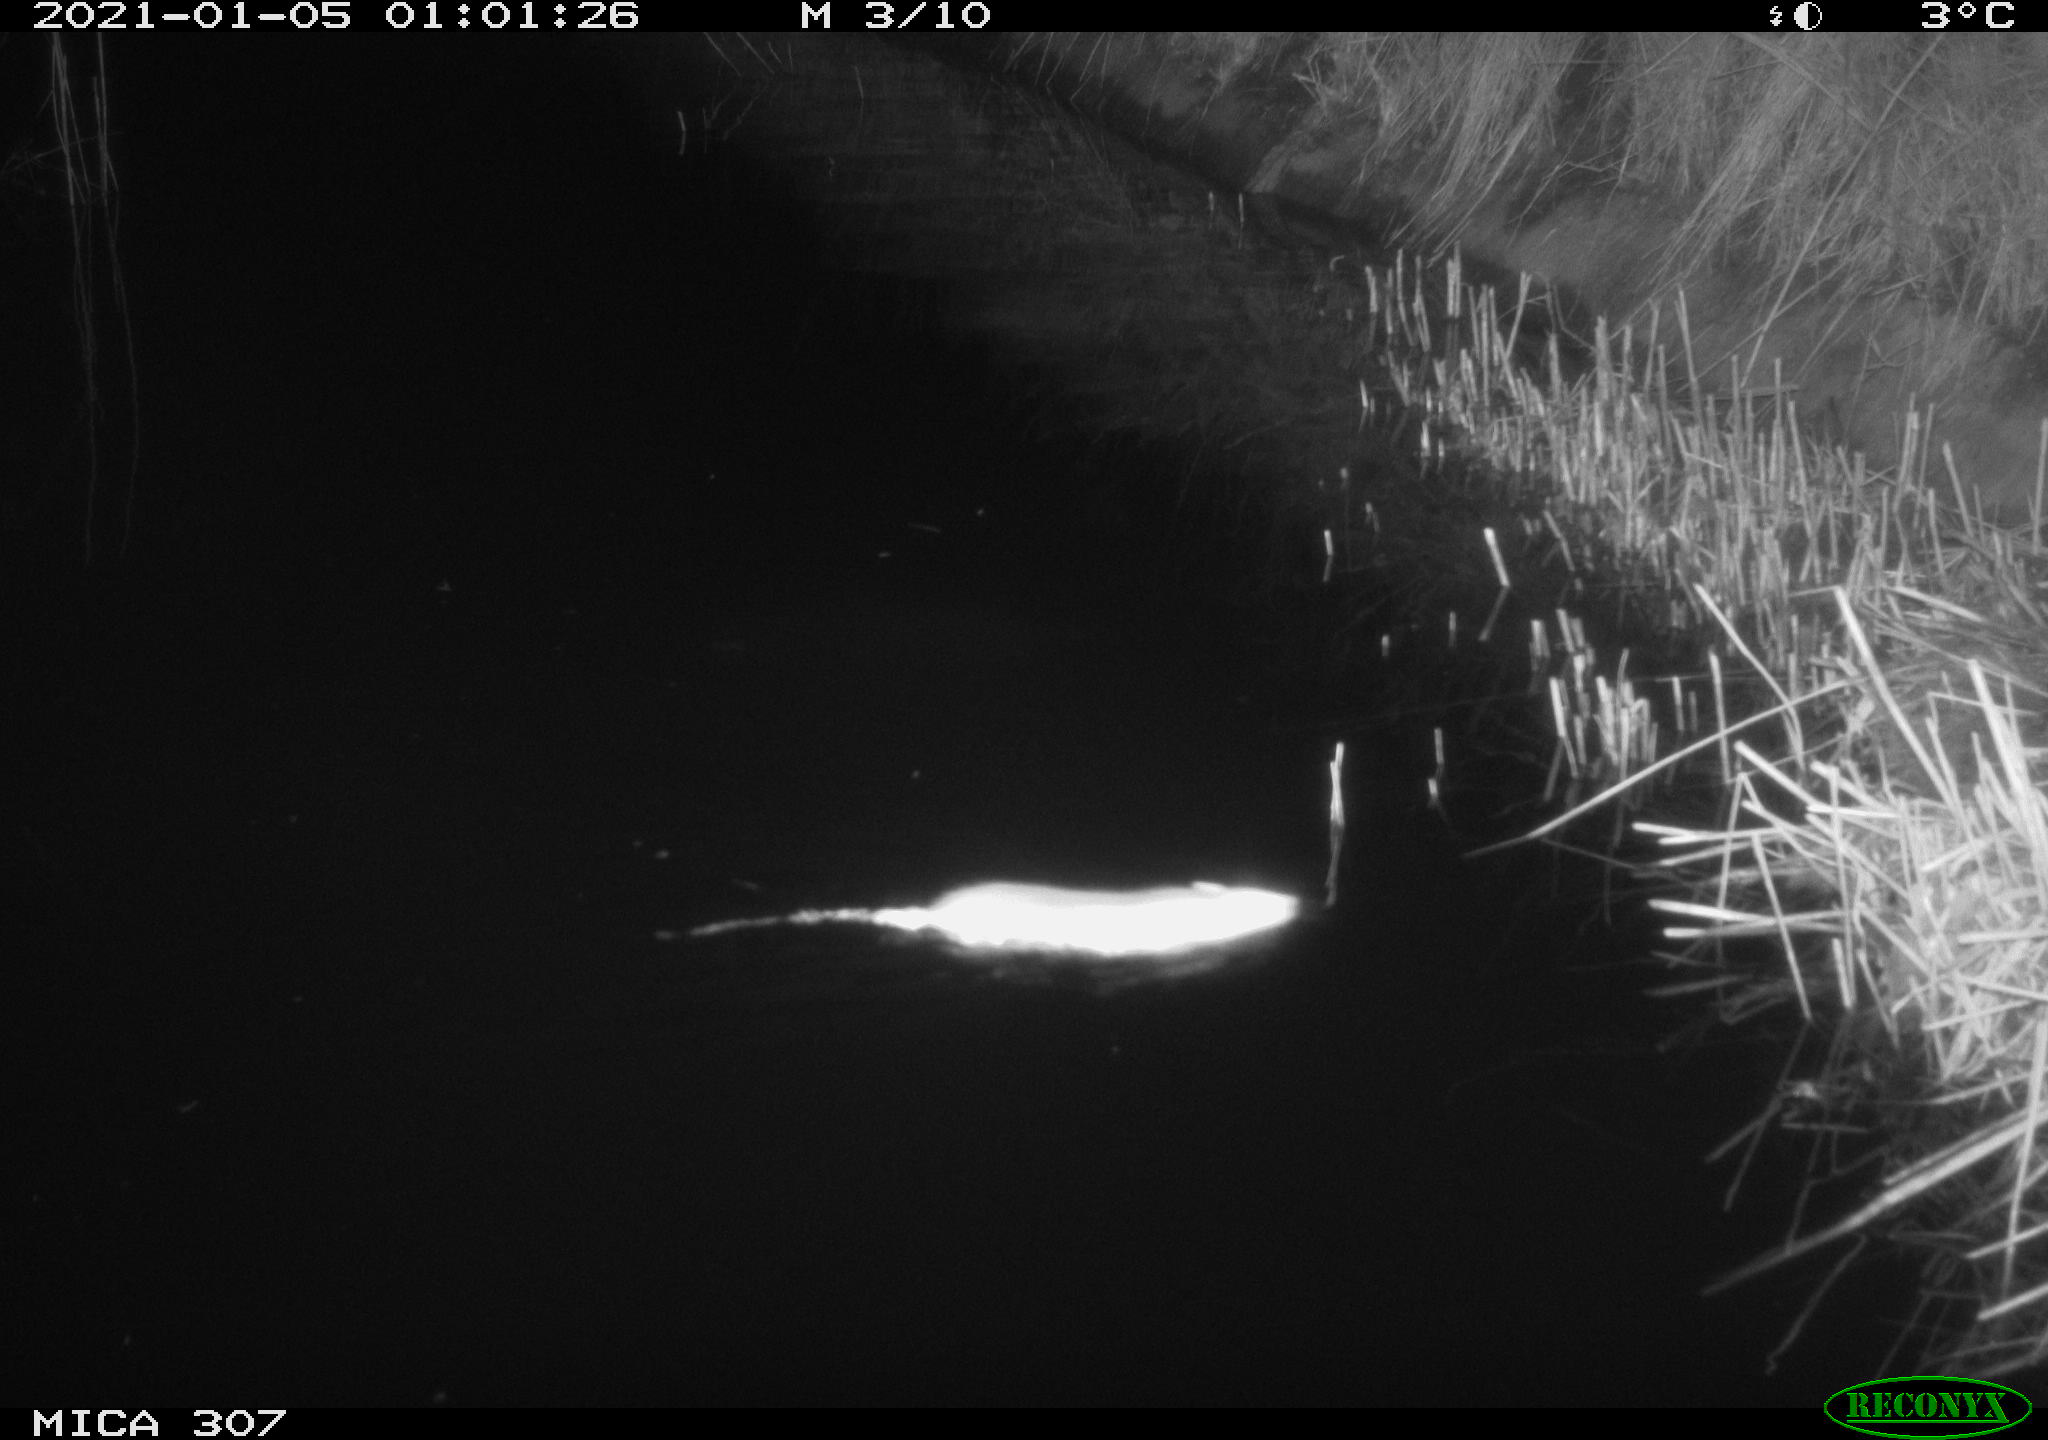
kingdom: Animalia
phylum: Chordata
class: Mammalia
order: Rodentia
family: Muridae
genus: Rattus
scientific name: Rattus norvegicus
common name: Brown rat
